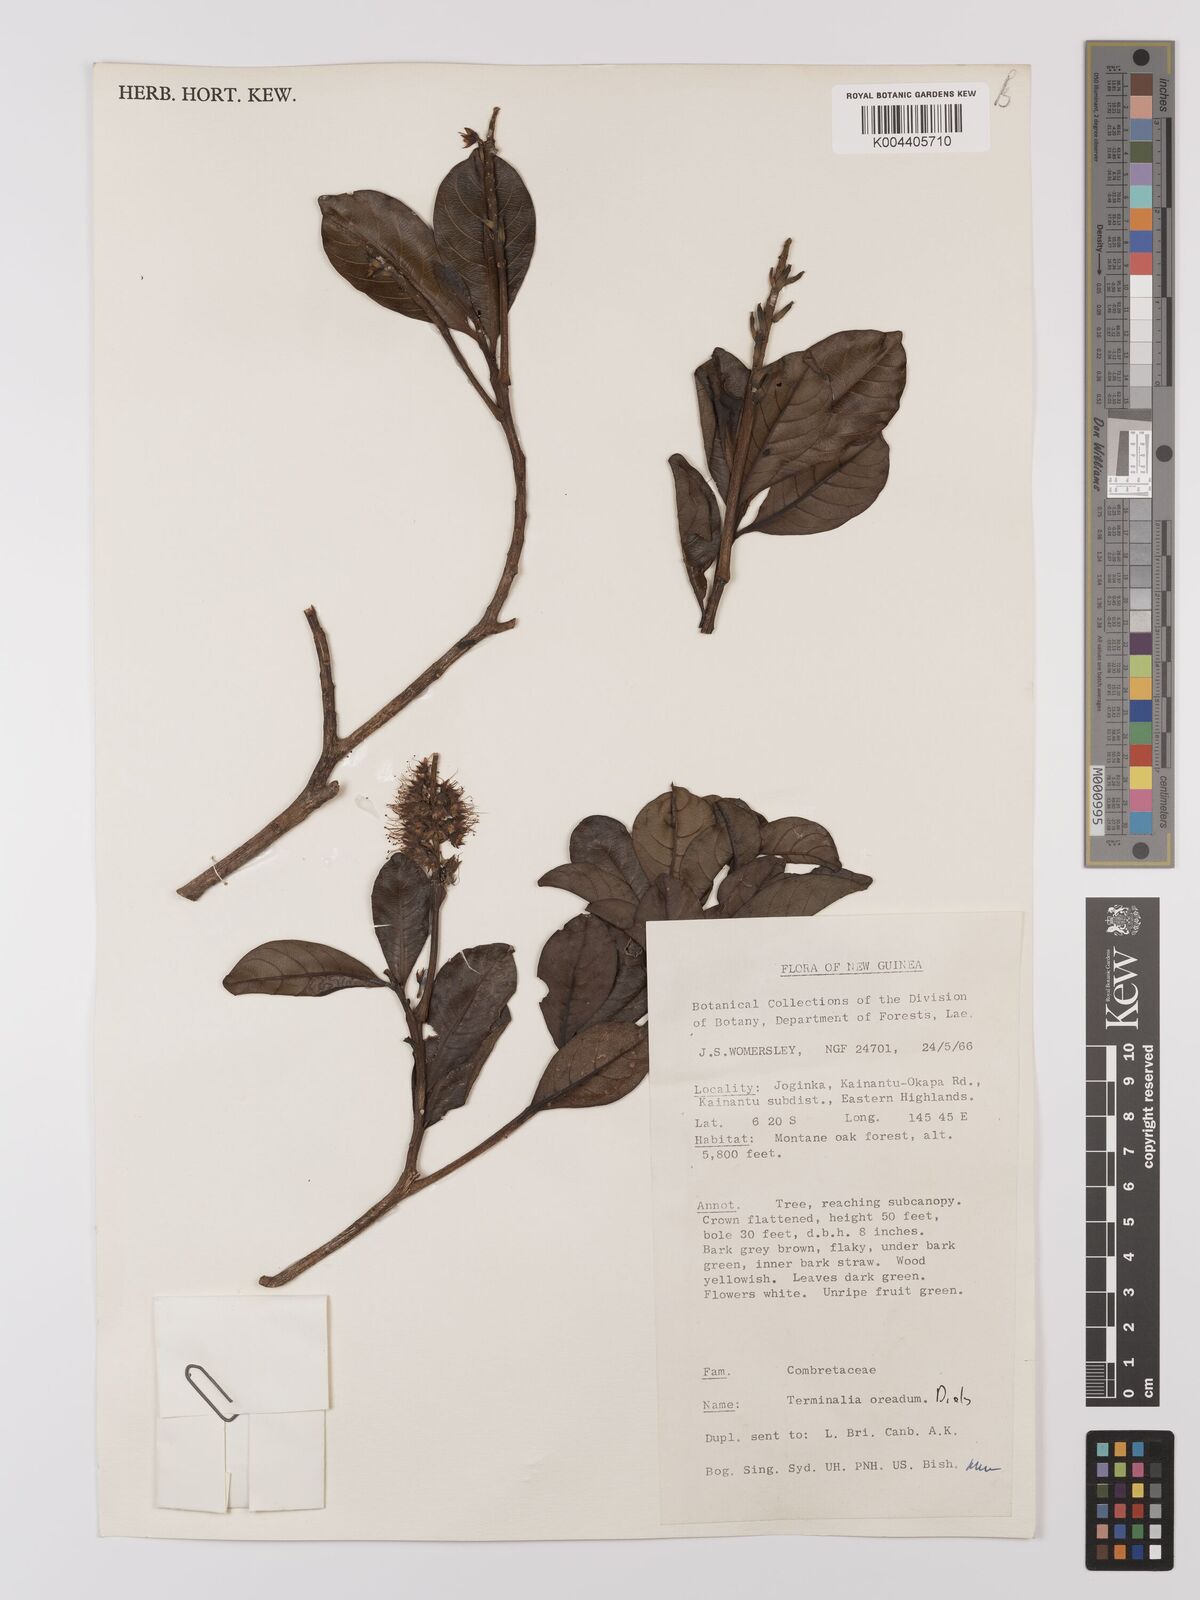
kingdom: Plantae
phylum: Tracheophyta
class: Magnoliopsida
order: Myrtales
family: Combretaceae
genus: Terminalia
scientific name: Terminalia oreadum
